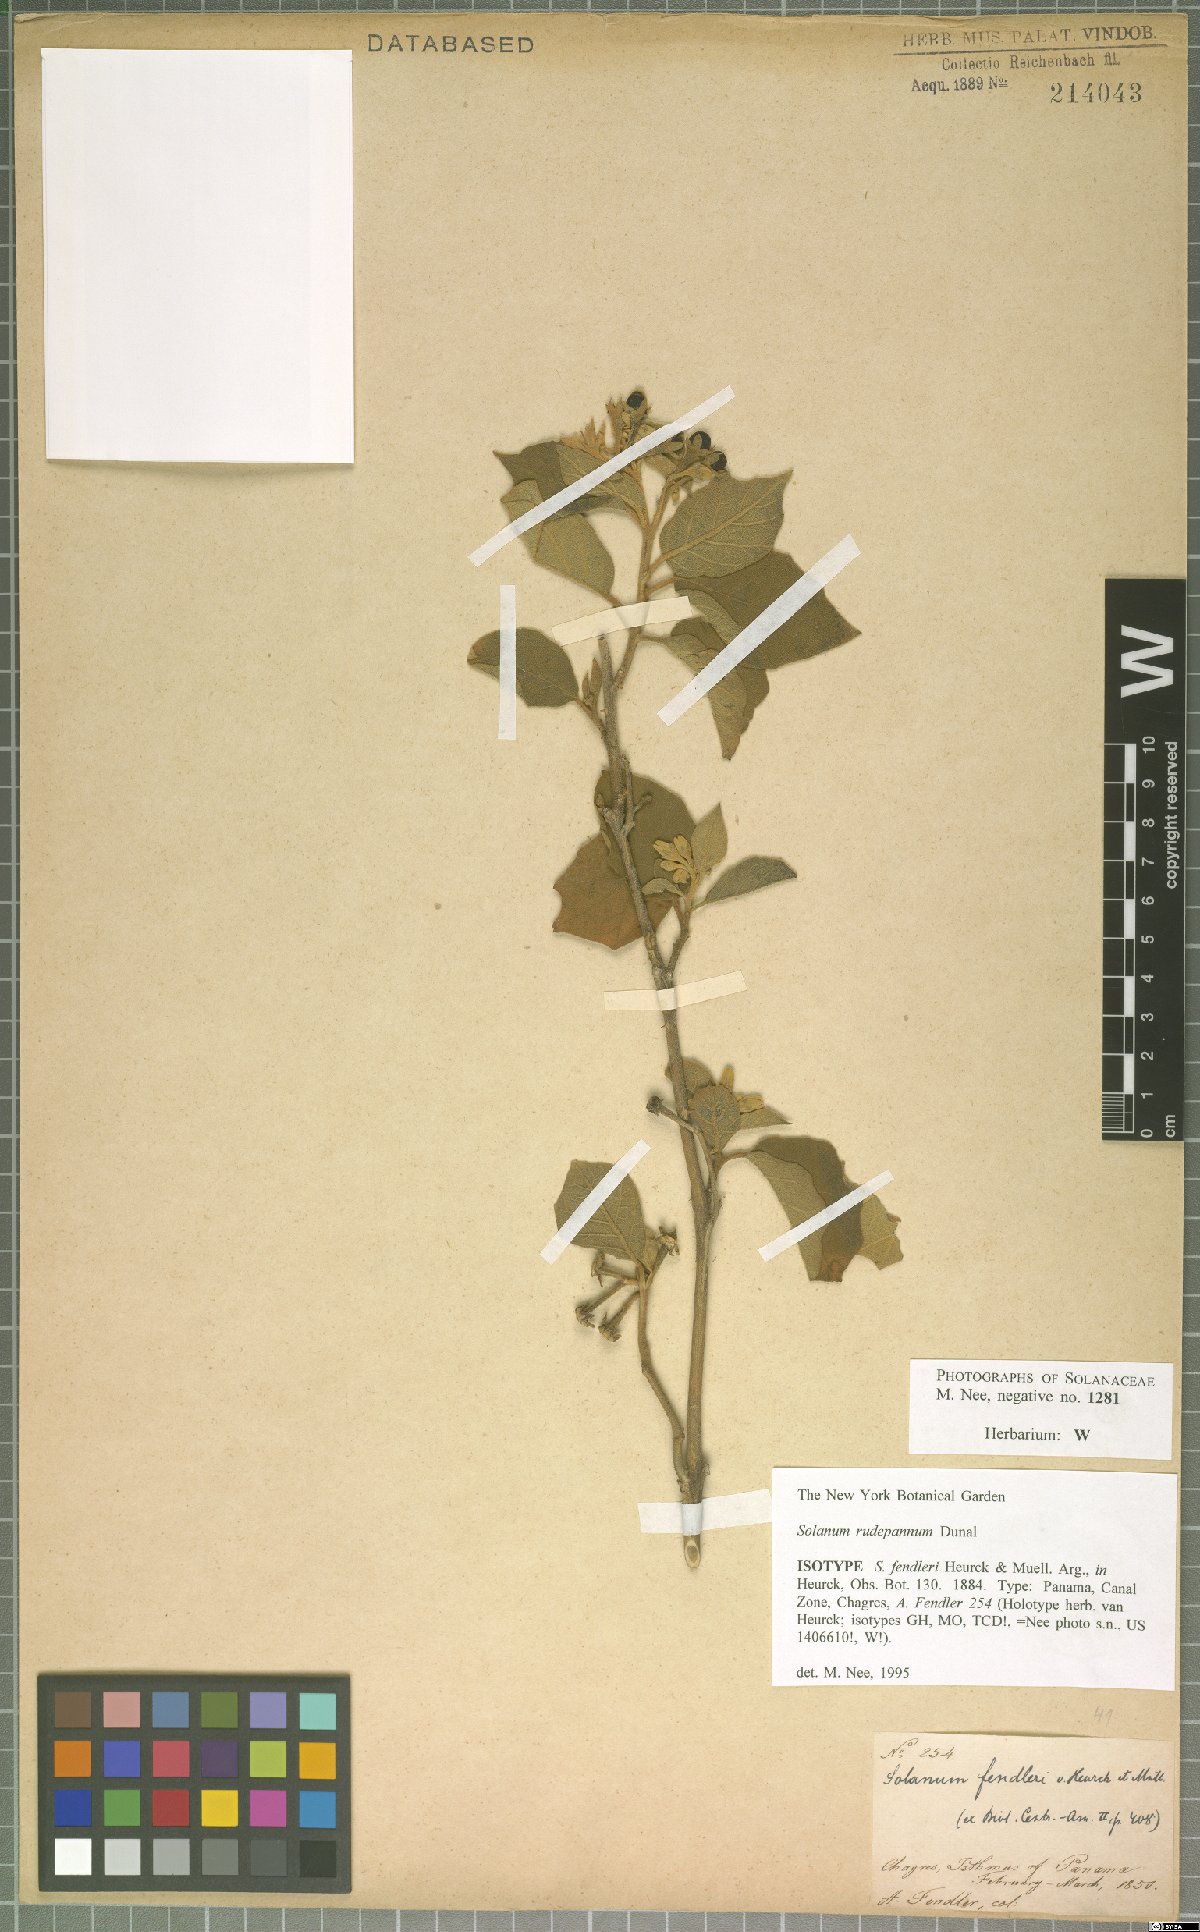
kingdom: Plantae
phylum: Tracheophyta
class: Magnoliopsida
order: Solanales
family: Solanaceae
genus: Solanum
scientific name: Solanum rude-pannum
